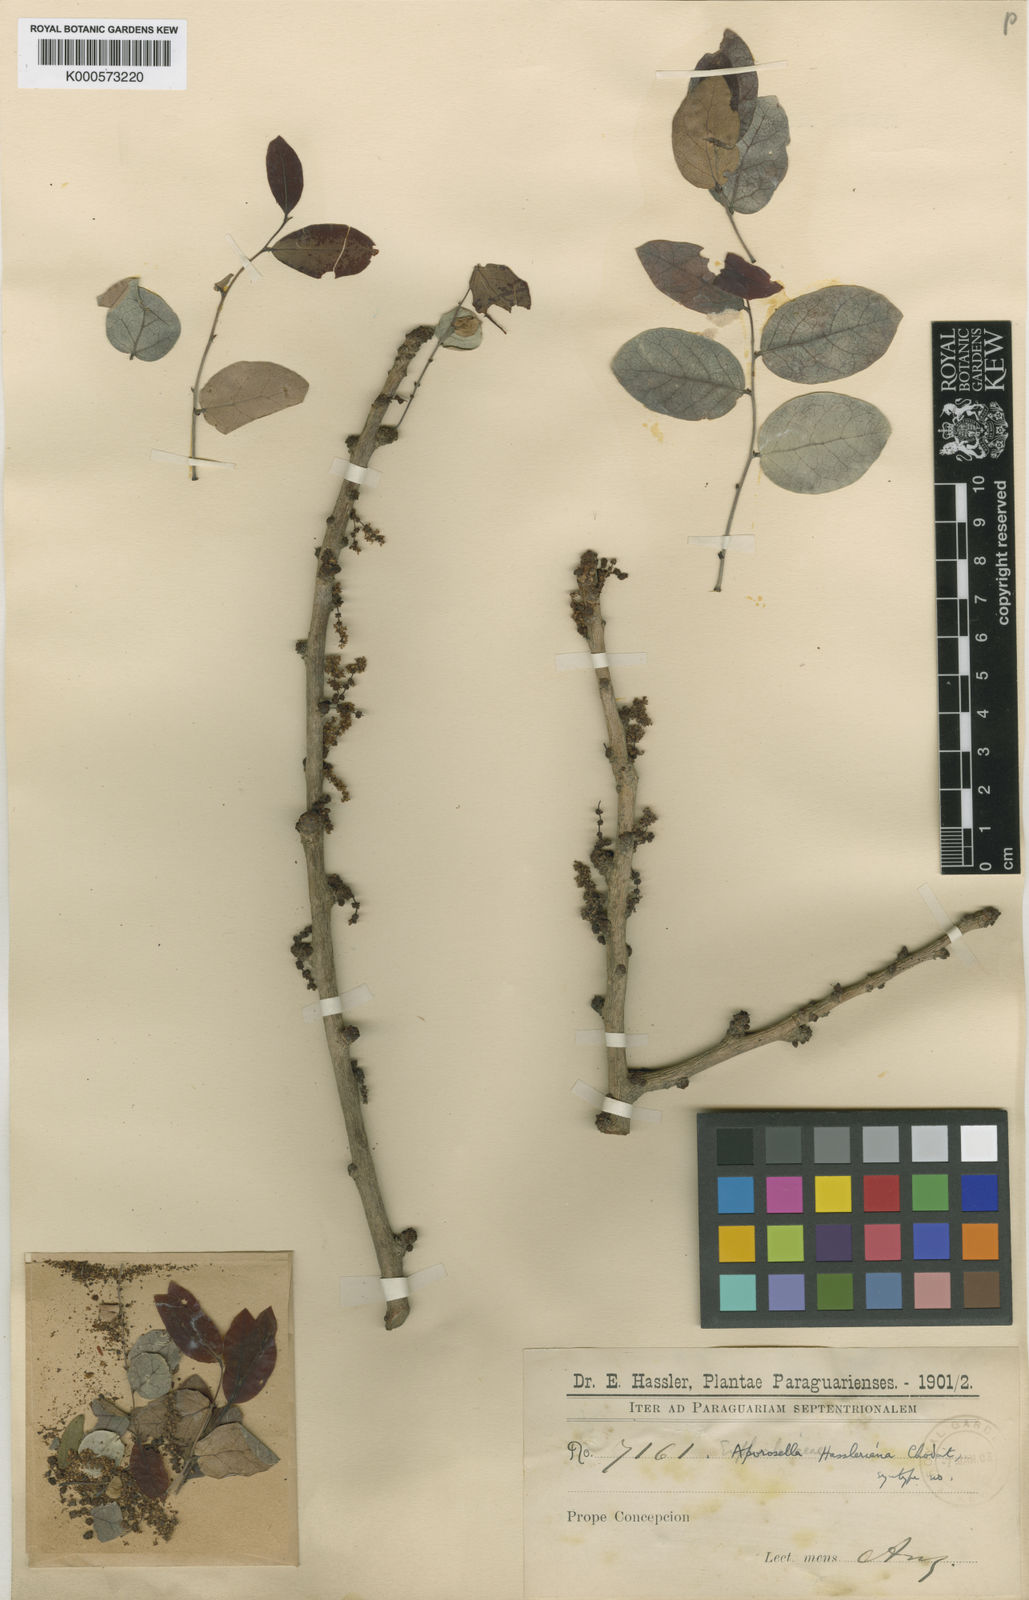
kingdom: Plantae
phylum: Tracheophyta
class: Magnoliopsida
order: Malpighiales
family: Phyllanthaceae
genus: Phyllanthus
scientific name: Phyllanthus chacoensis
